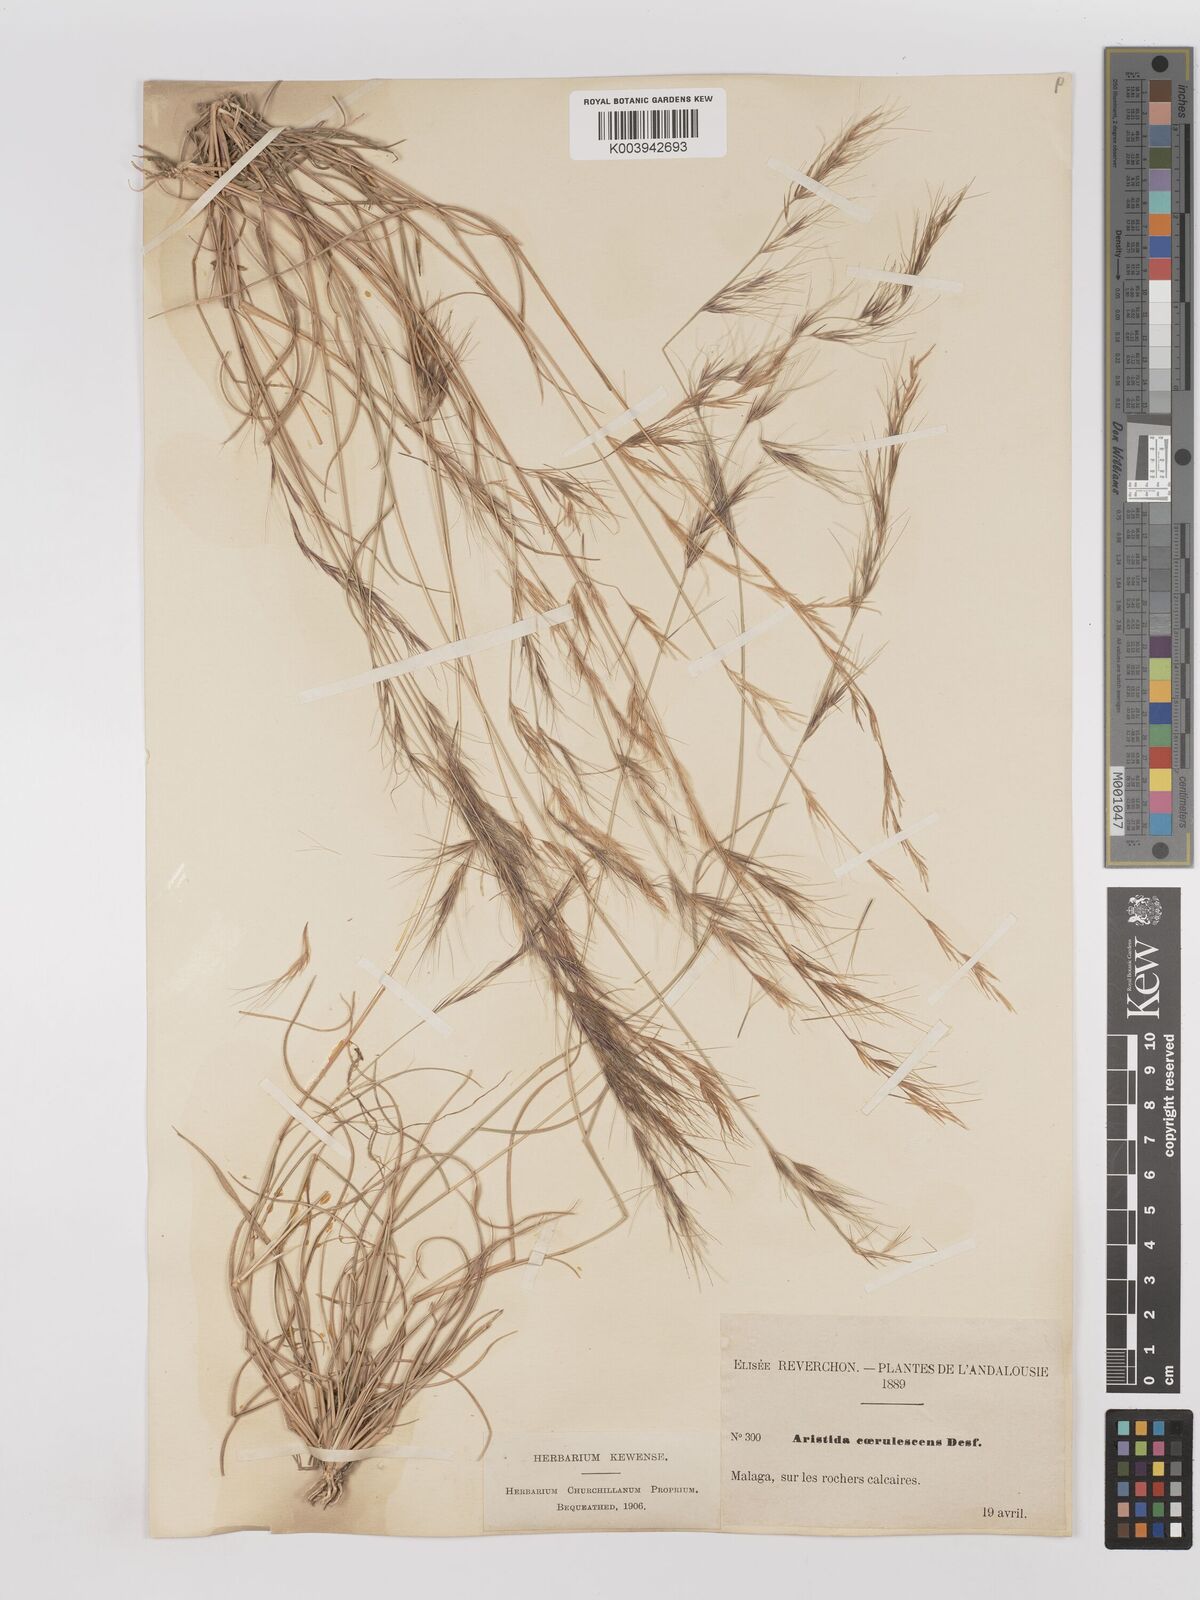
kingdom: Plantae
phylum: Tracheophyta
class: Liliopsida
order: Poales
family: Poaceae
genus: Aristida
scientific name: Aristida adscensionis
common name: Sixweeks threeawn
